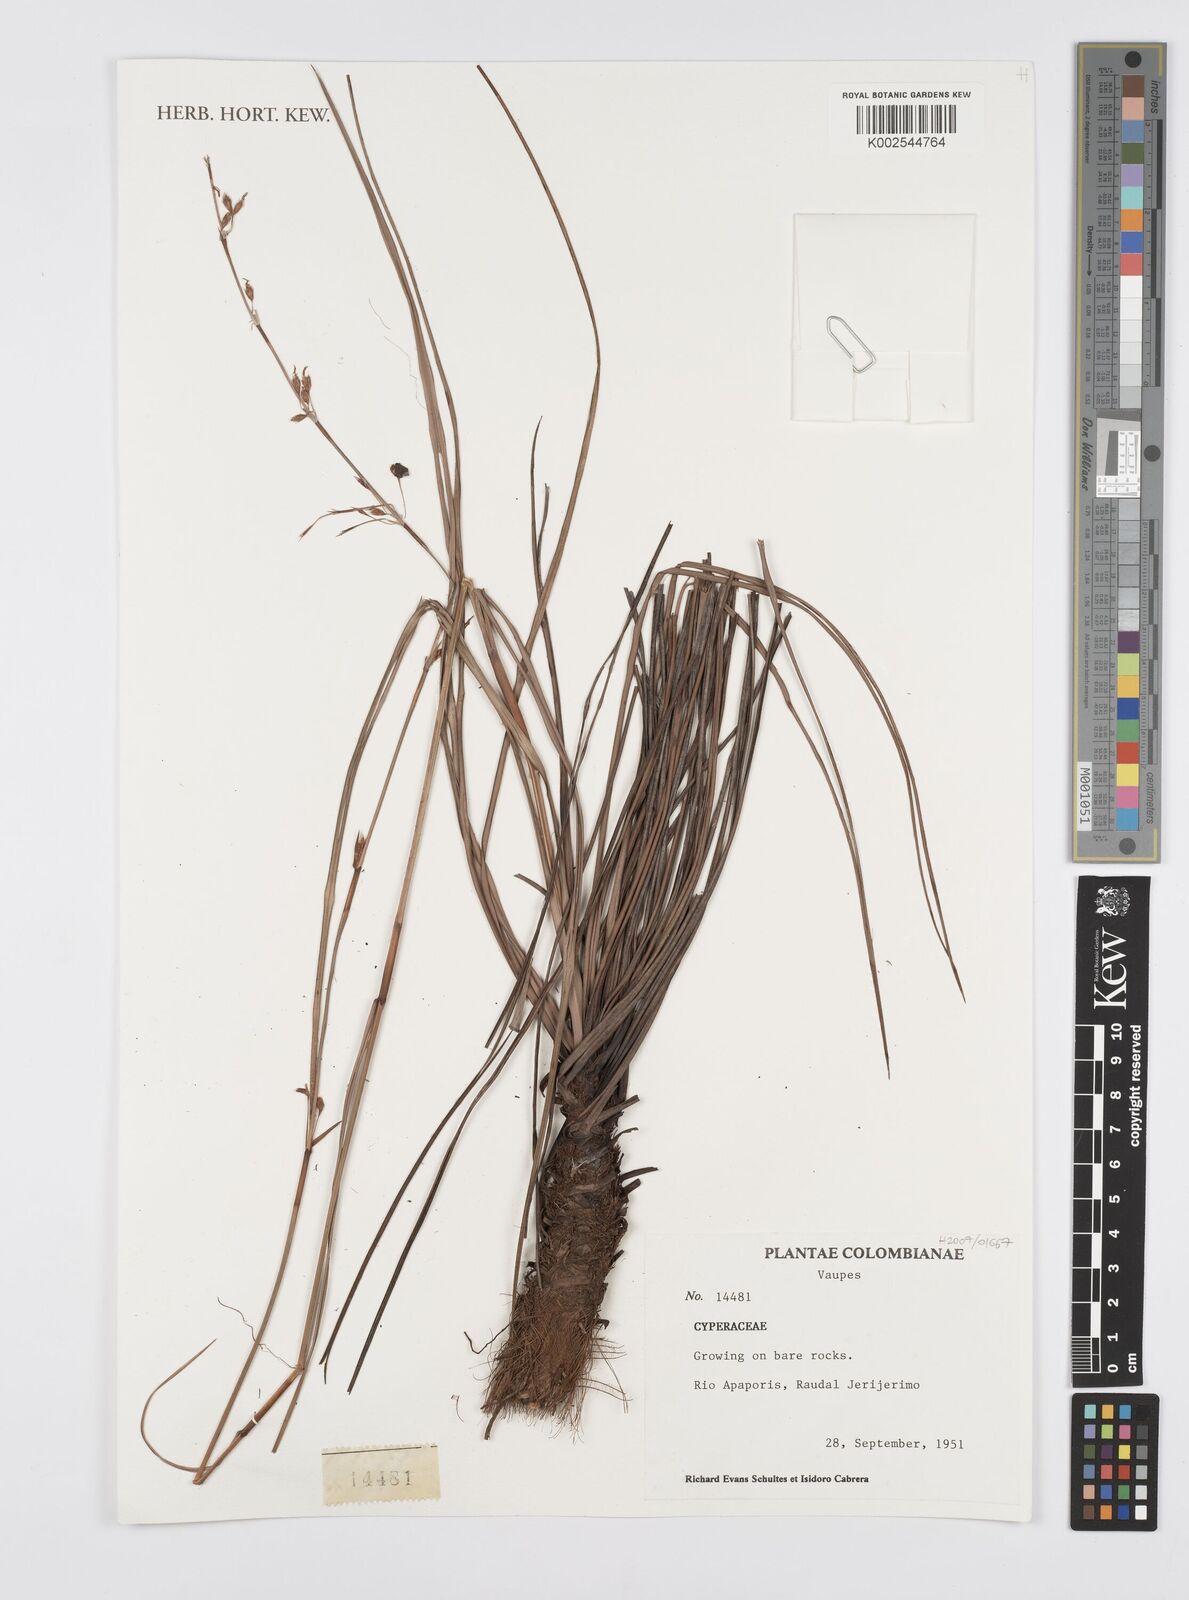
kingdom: Plantae
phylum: Tracheophyta
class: Liliopsida
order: Poales
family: Cyperaceae
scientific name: Cyperaceae
